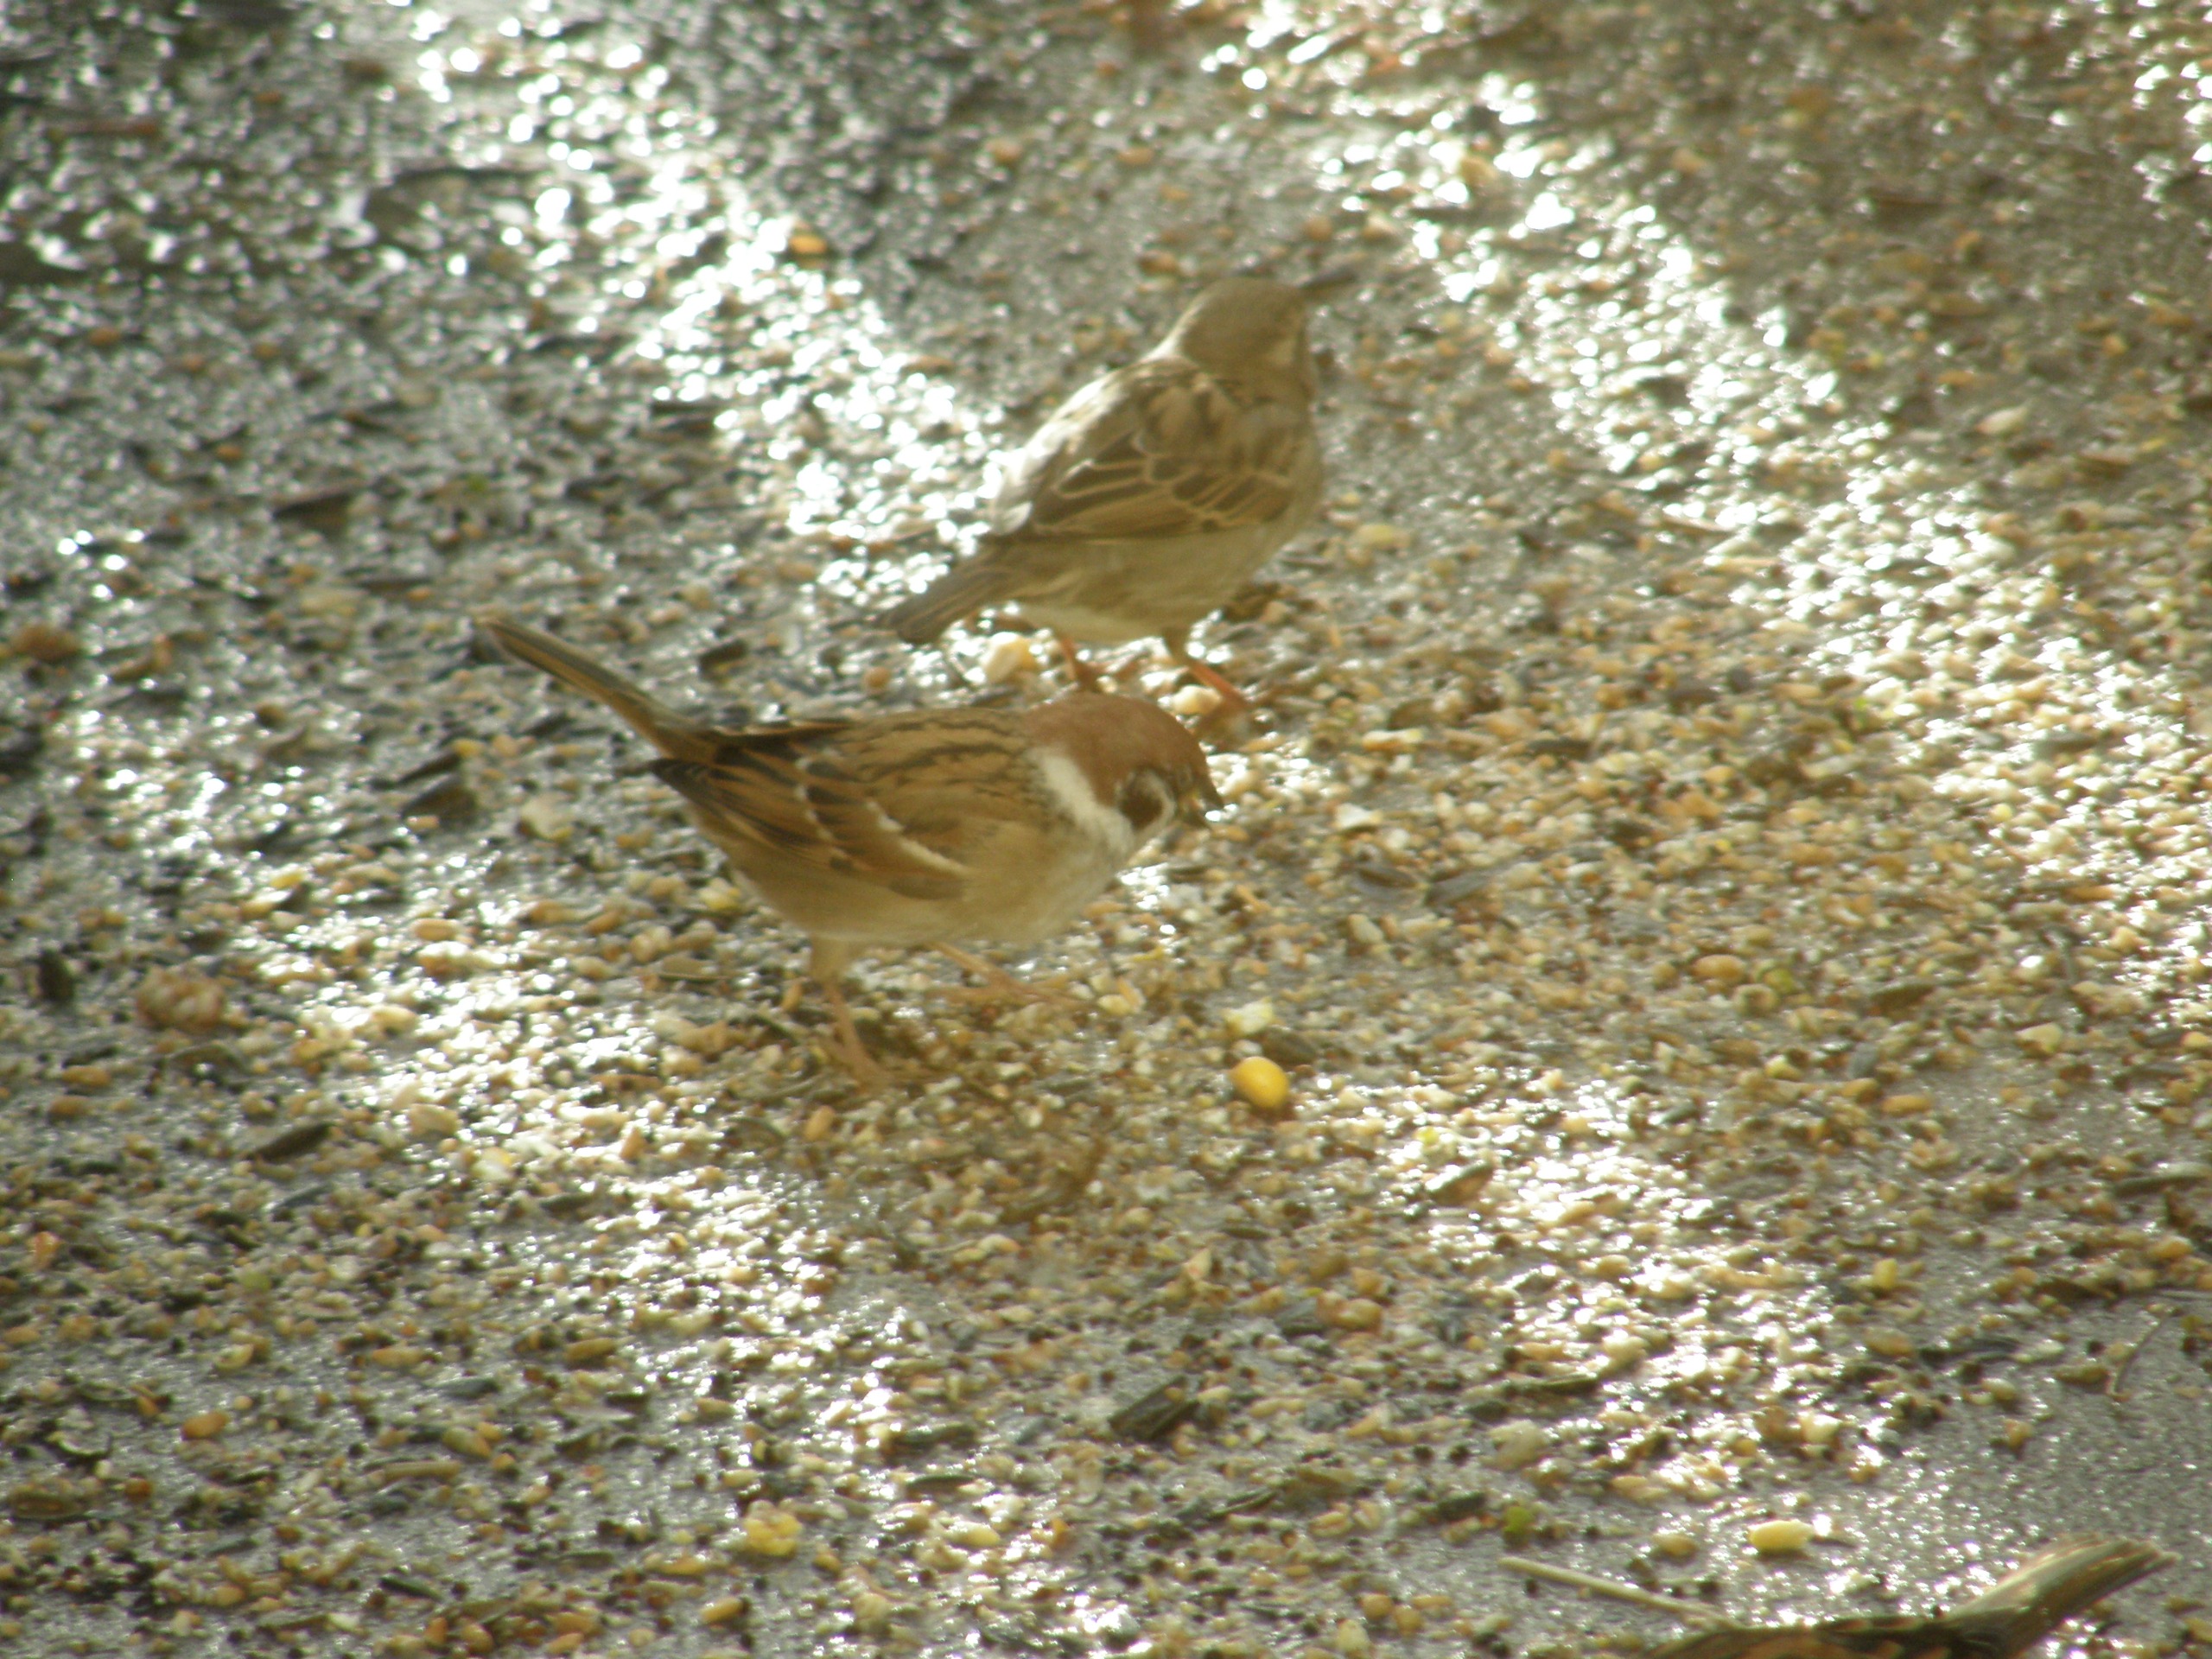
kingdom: Animalia
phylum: Chordata
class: Aves
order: Passeriformes
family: Passeridae
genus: Passer
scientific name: Passer montanus
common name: Skovspurv
